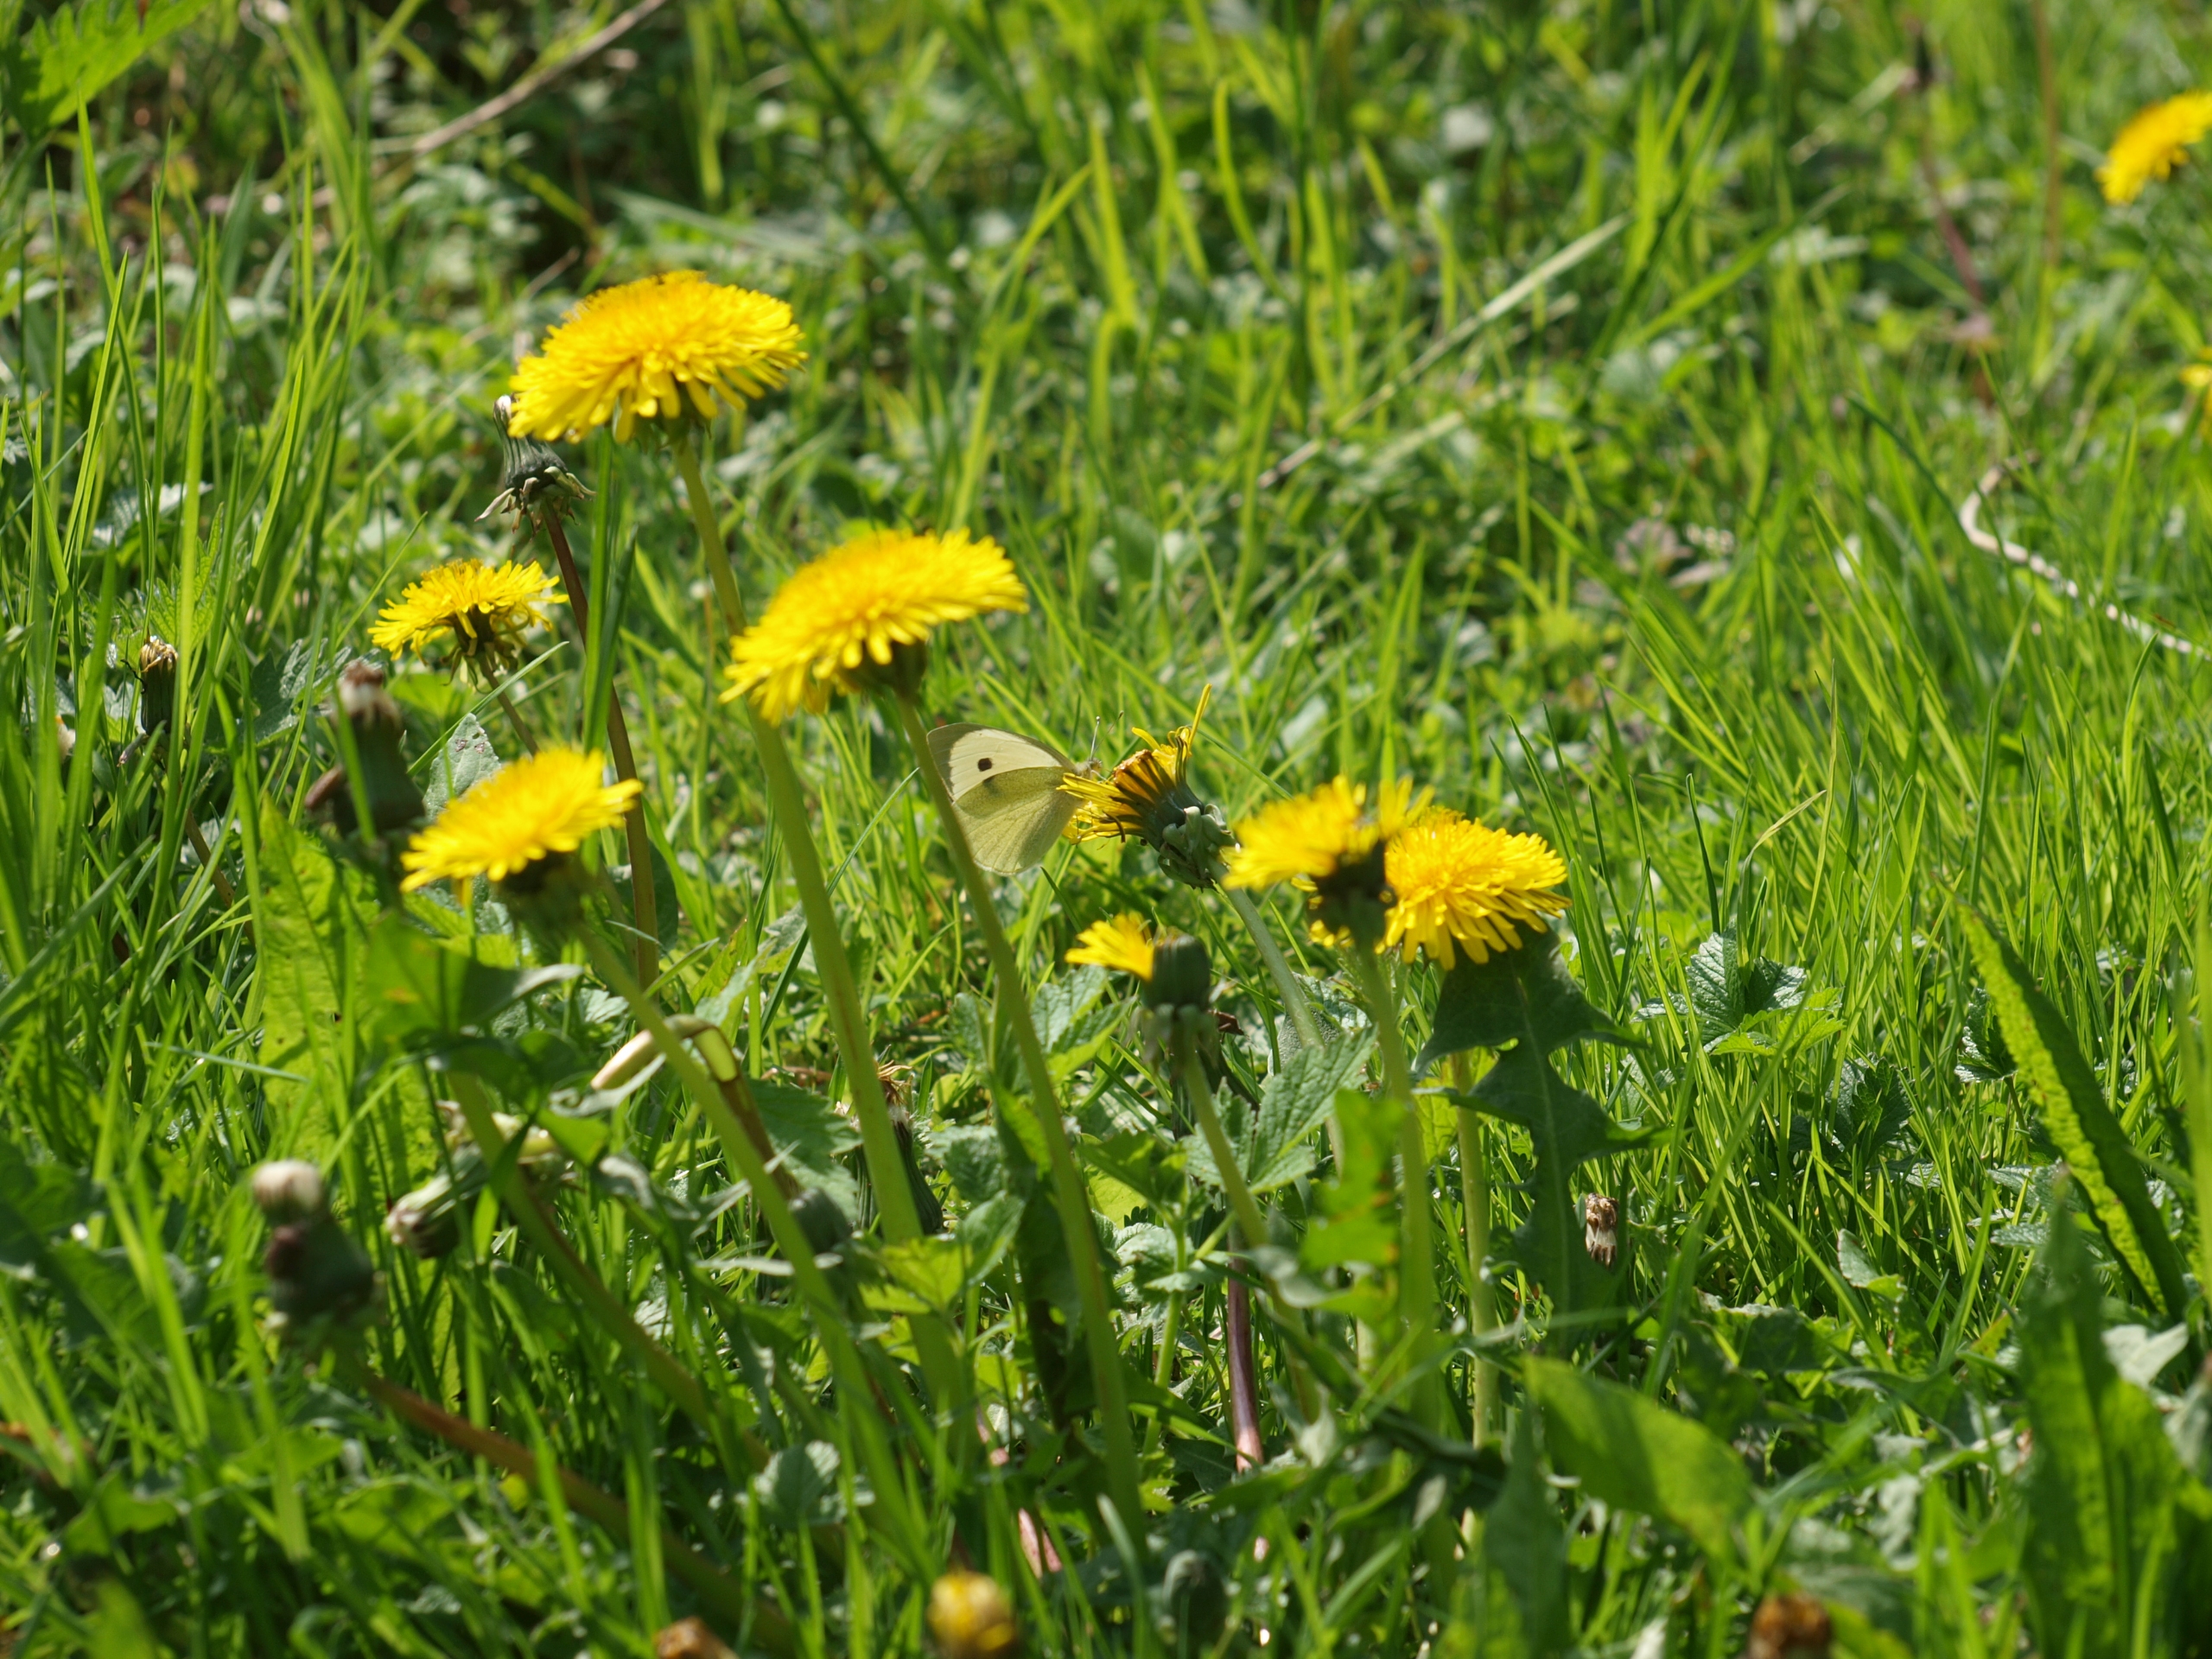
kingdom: Animalia
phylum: Arthropoda
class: Insecta
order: Lepidoptera
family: Pieridae
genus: Pieris
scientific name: Pieris brassicae
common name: Stor kålsommerfugl
